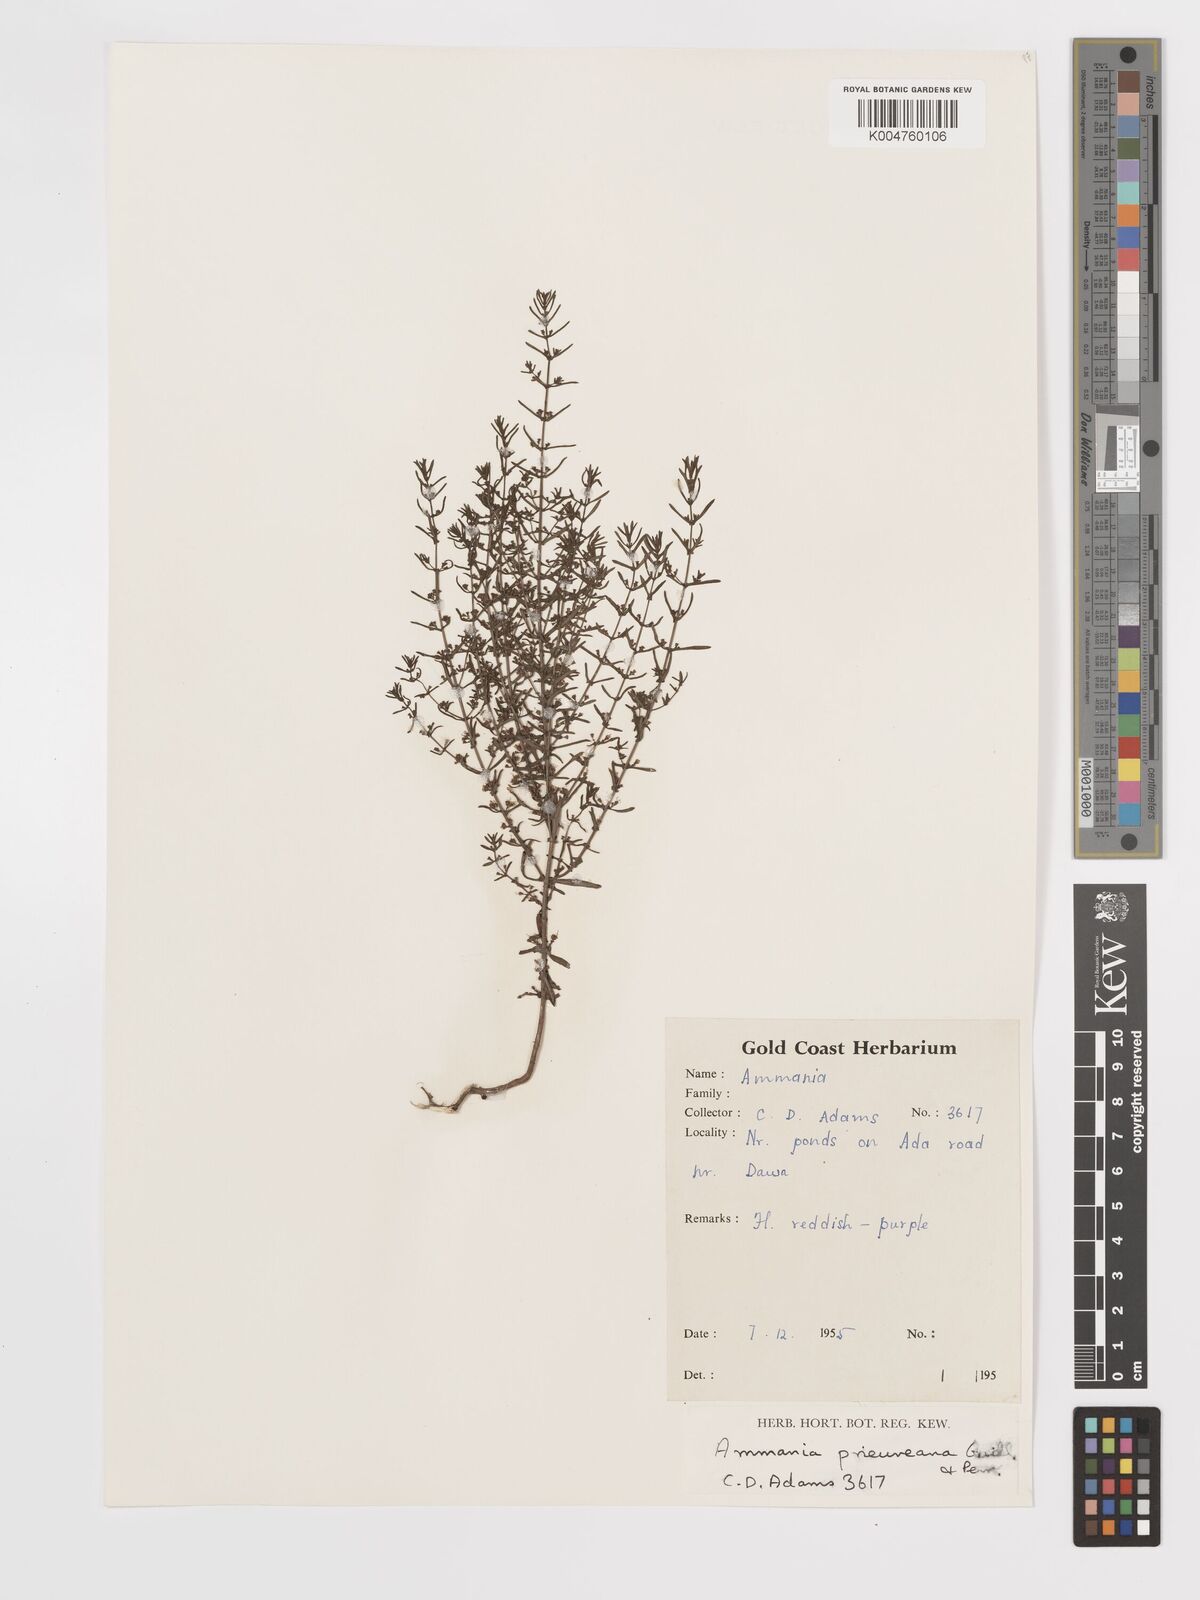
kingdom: Plantae
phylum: Tracheophyta
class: Magnoliopsida
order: Myrtales
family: Lythraceae
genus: Ammannia
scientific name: Ammannia prieuriana
